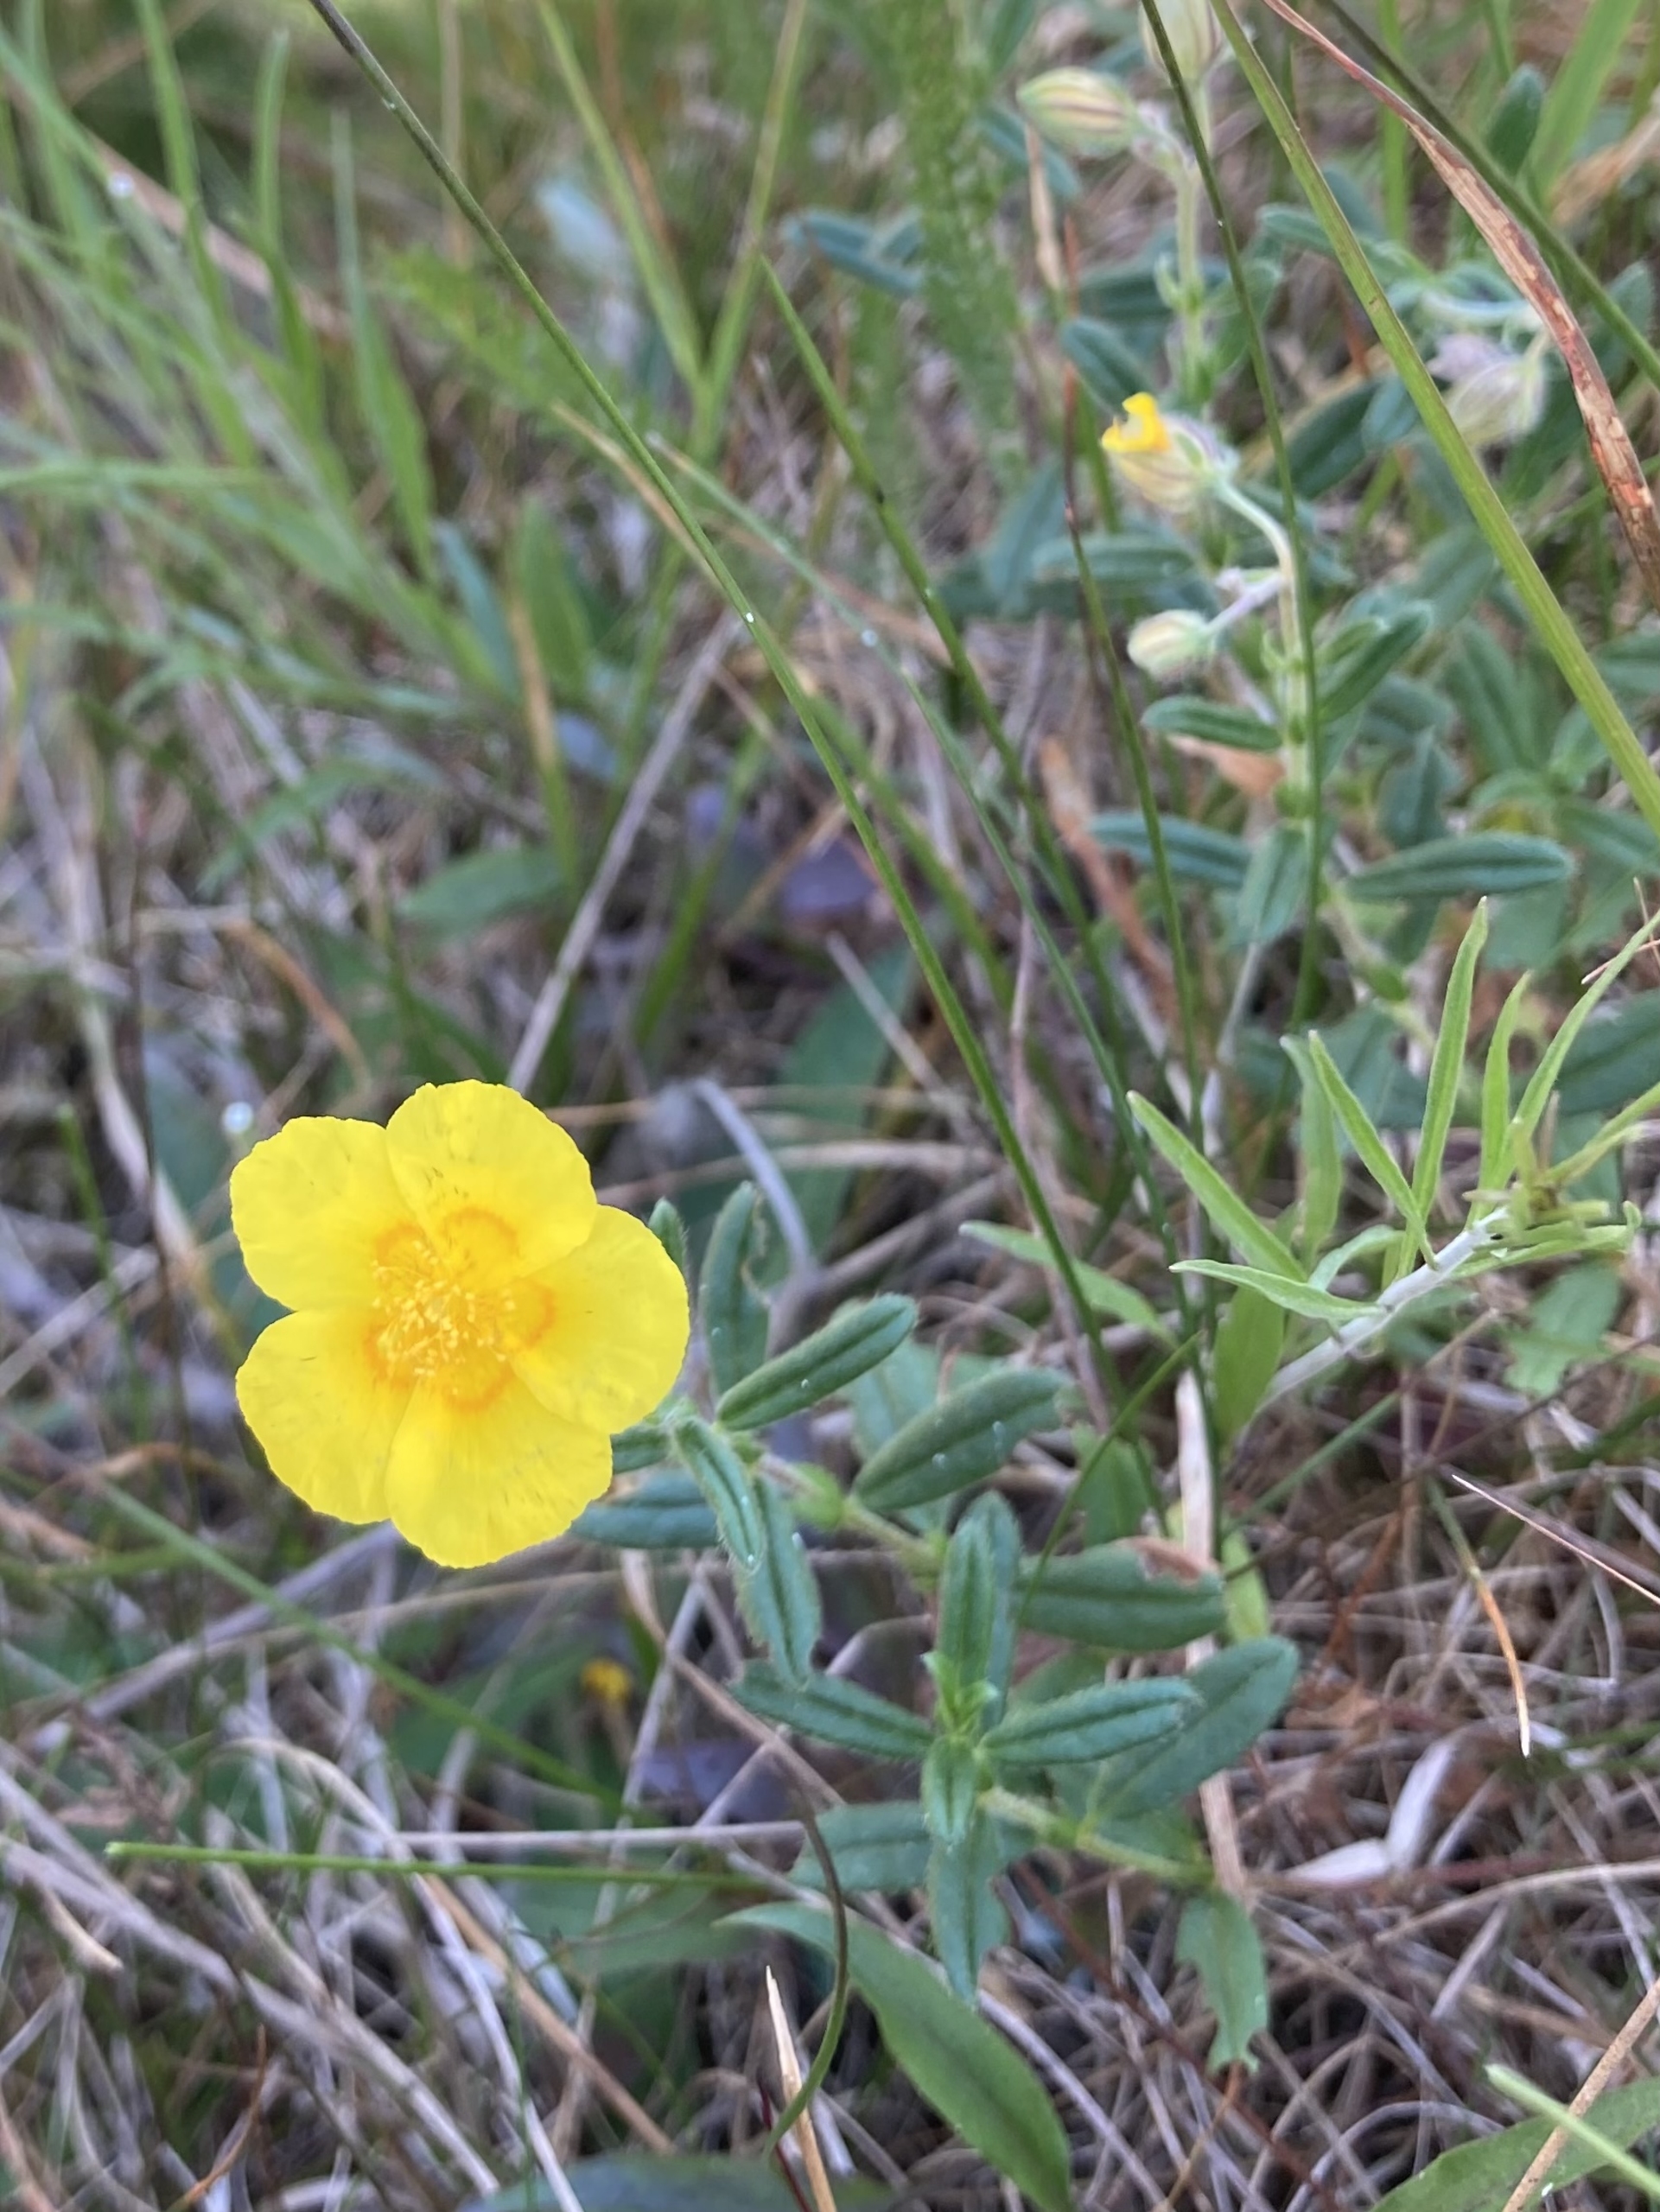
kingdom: Plantae
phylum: Tracheophyta
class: Magnoliopsida
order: Malvales
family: Cistaceae
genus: Helianthemum
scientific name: Helianthemum nummularium
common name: Soløje
